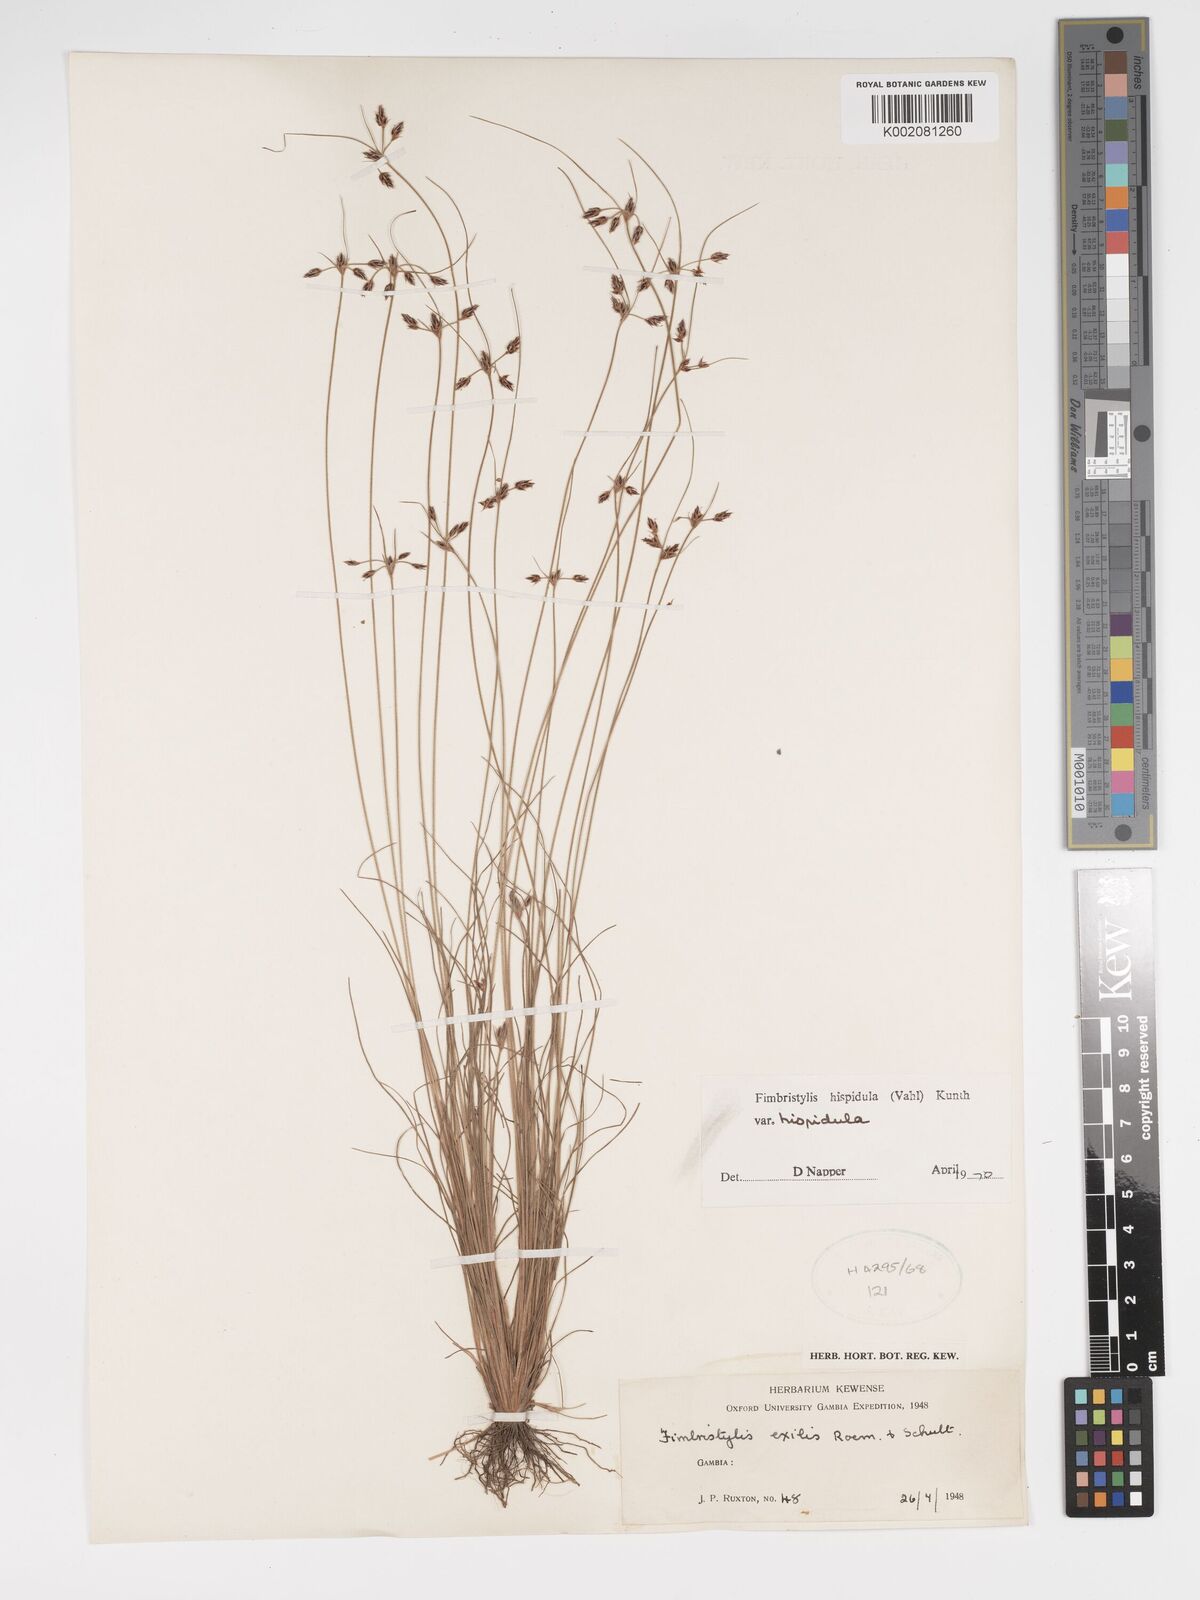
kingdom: Plantae
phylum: Tracheophyta
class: Liliopsida
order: Poales
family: Cyperaceae
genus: Bulbostylis
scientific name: Bulbostylis hispidula
